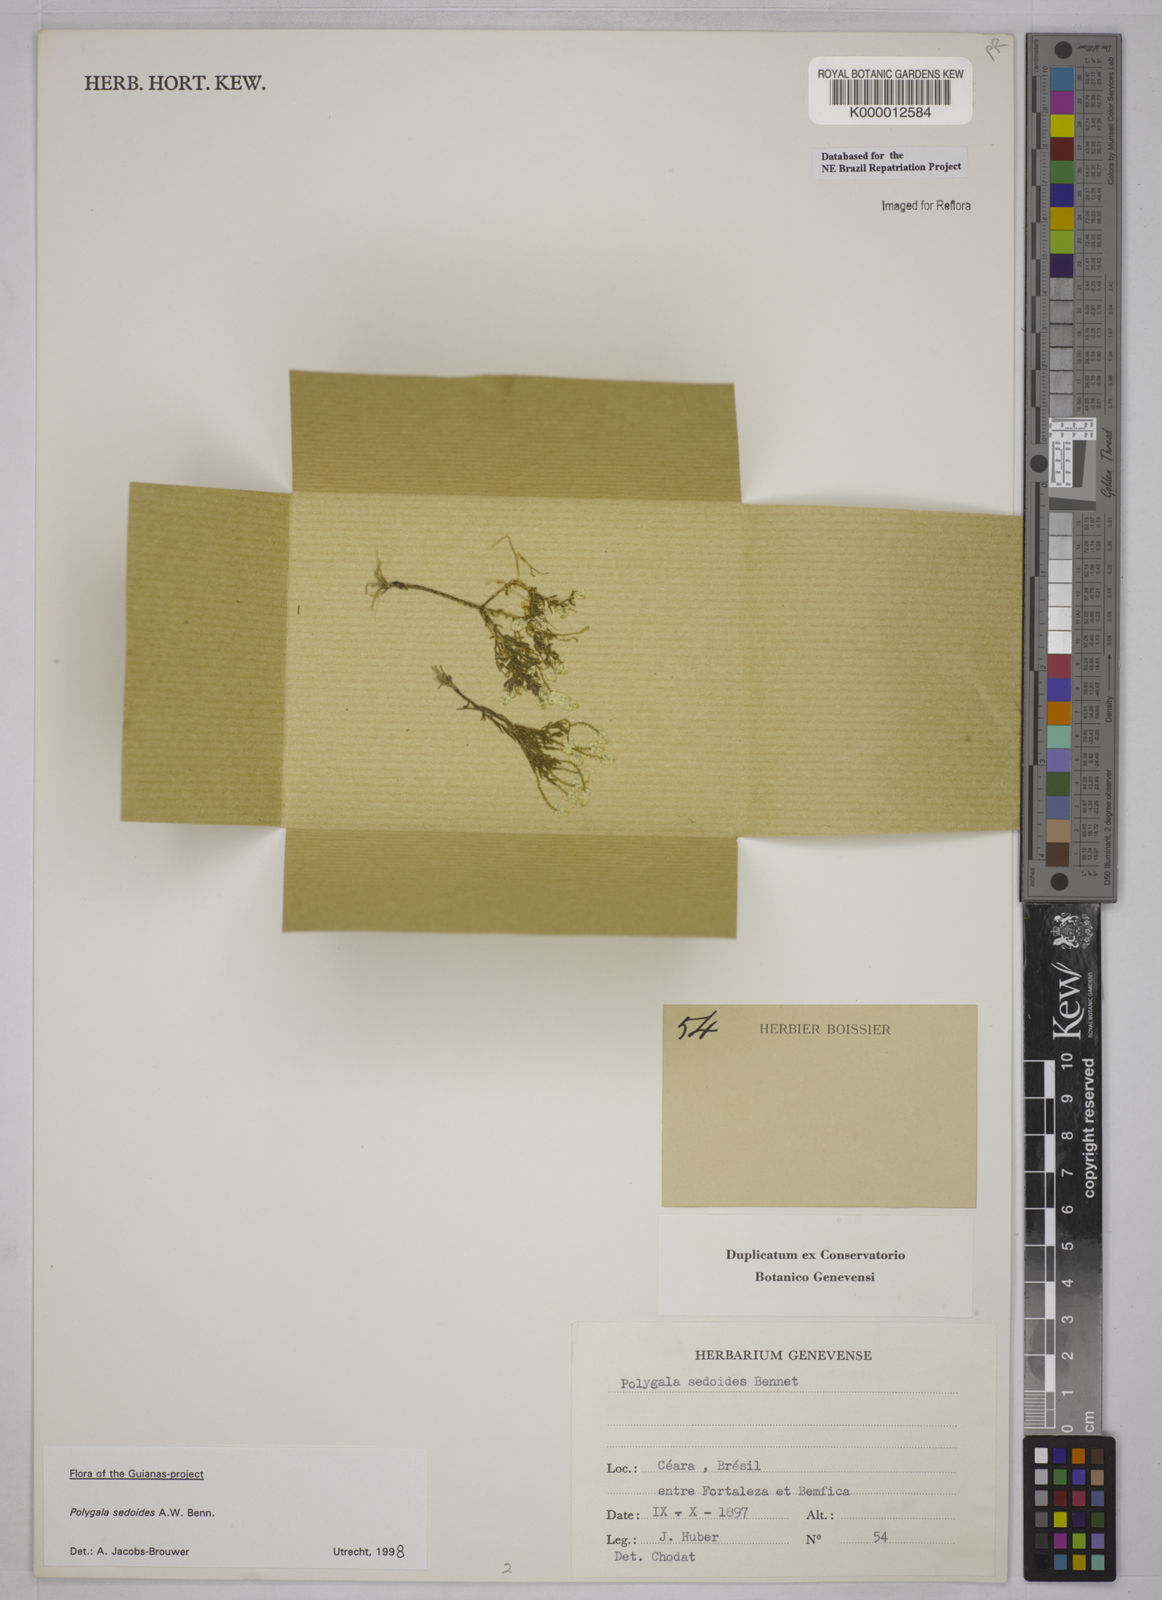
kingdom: Plantae
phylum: Tracheophyta
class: Magnoliopsida
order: Fabales
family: Polygalaceae
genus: Polygala
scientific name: Polygala sedoides
